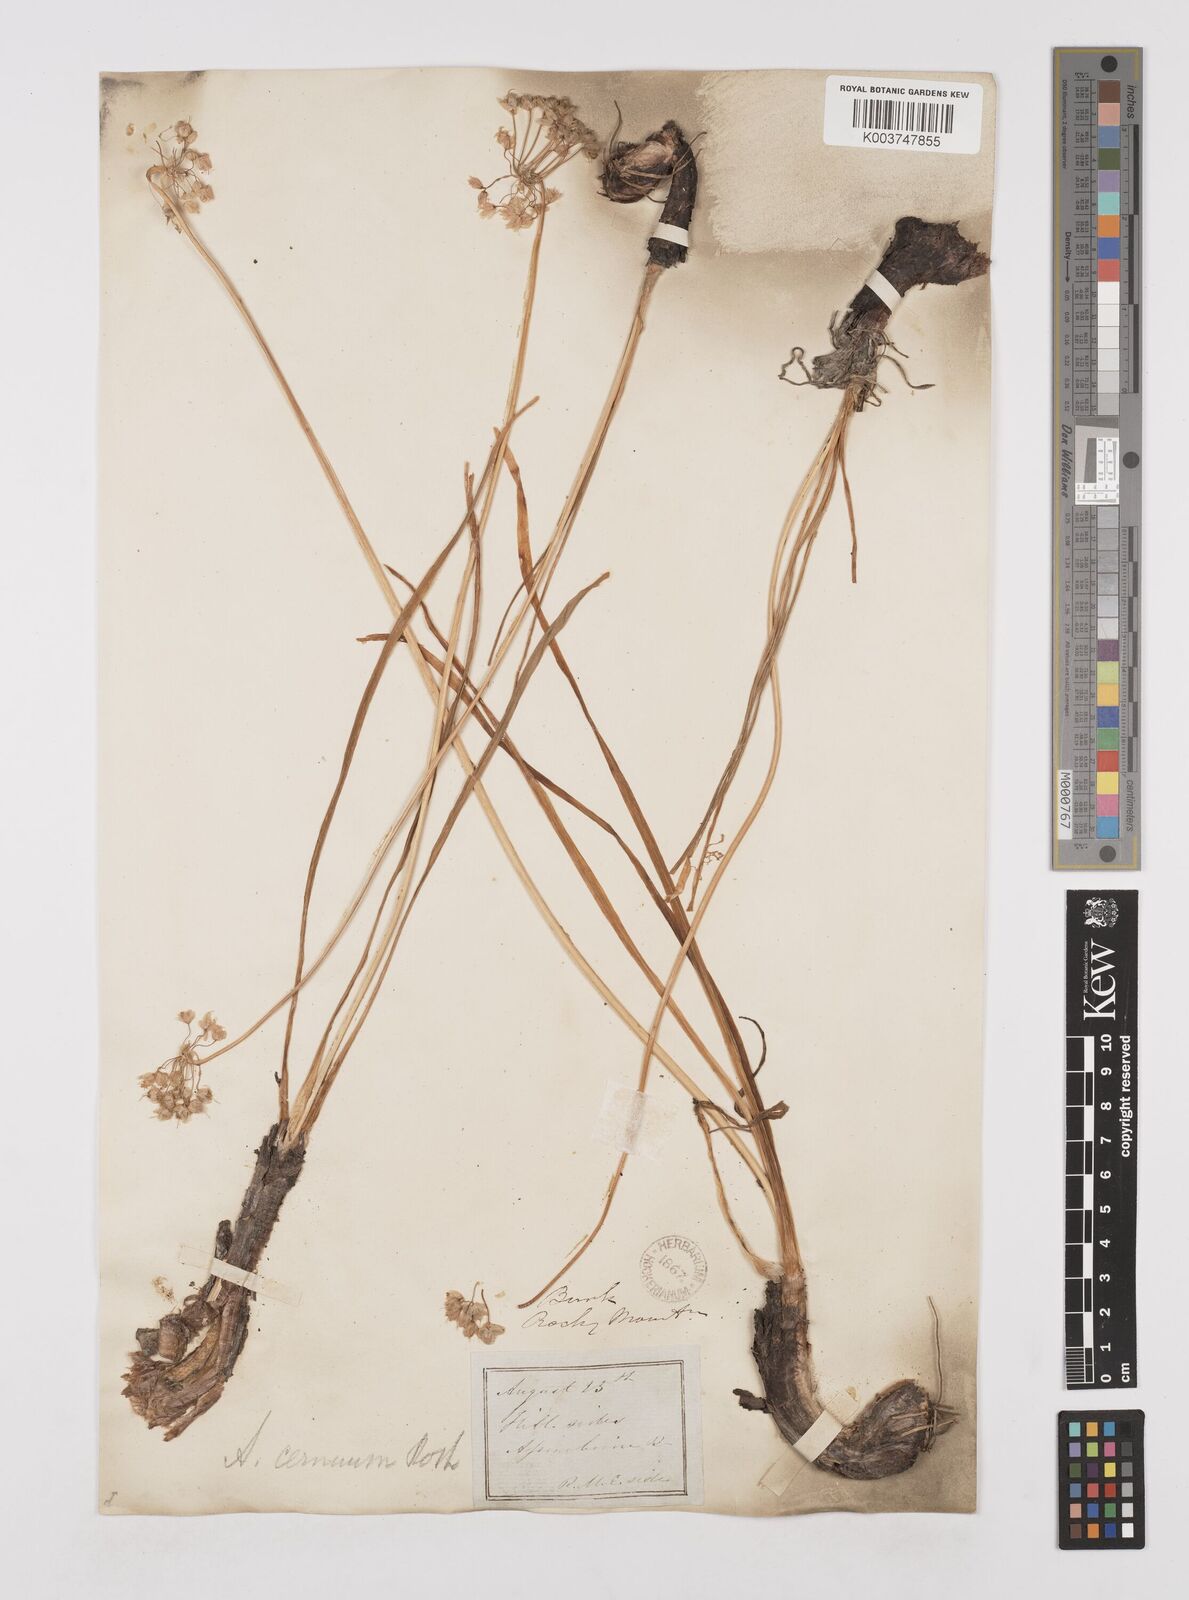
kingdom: Plantae
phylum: Tracheophyta
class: Liliopsida
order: Asparagales
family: Amaryllidaceae
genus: Allium
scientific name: Allium cernuum
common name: Nodding onion
